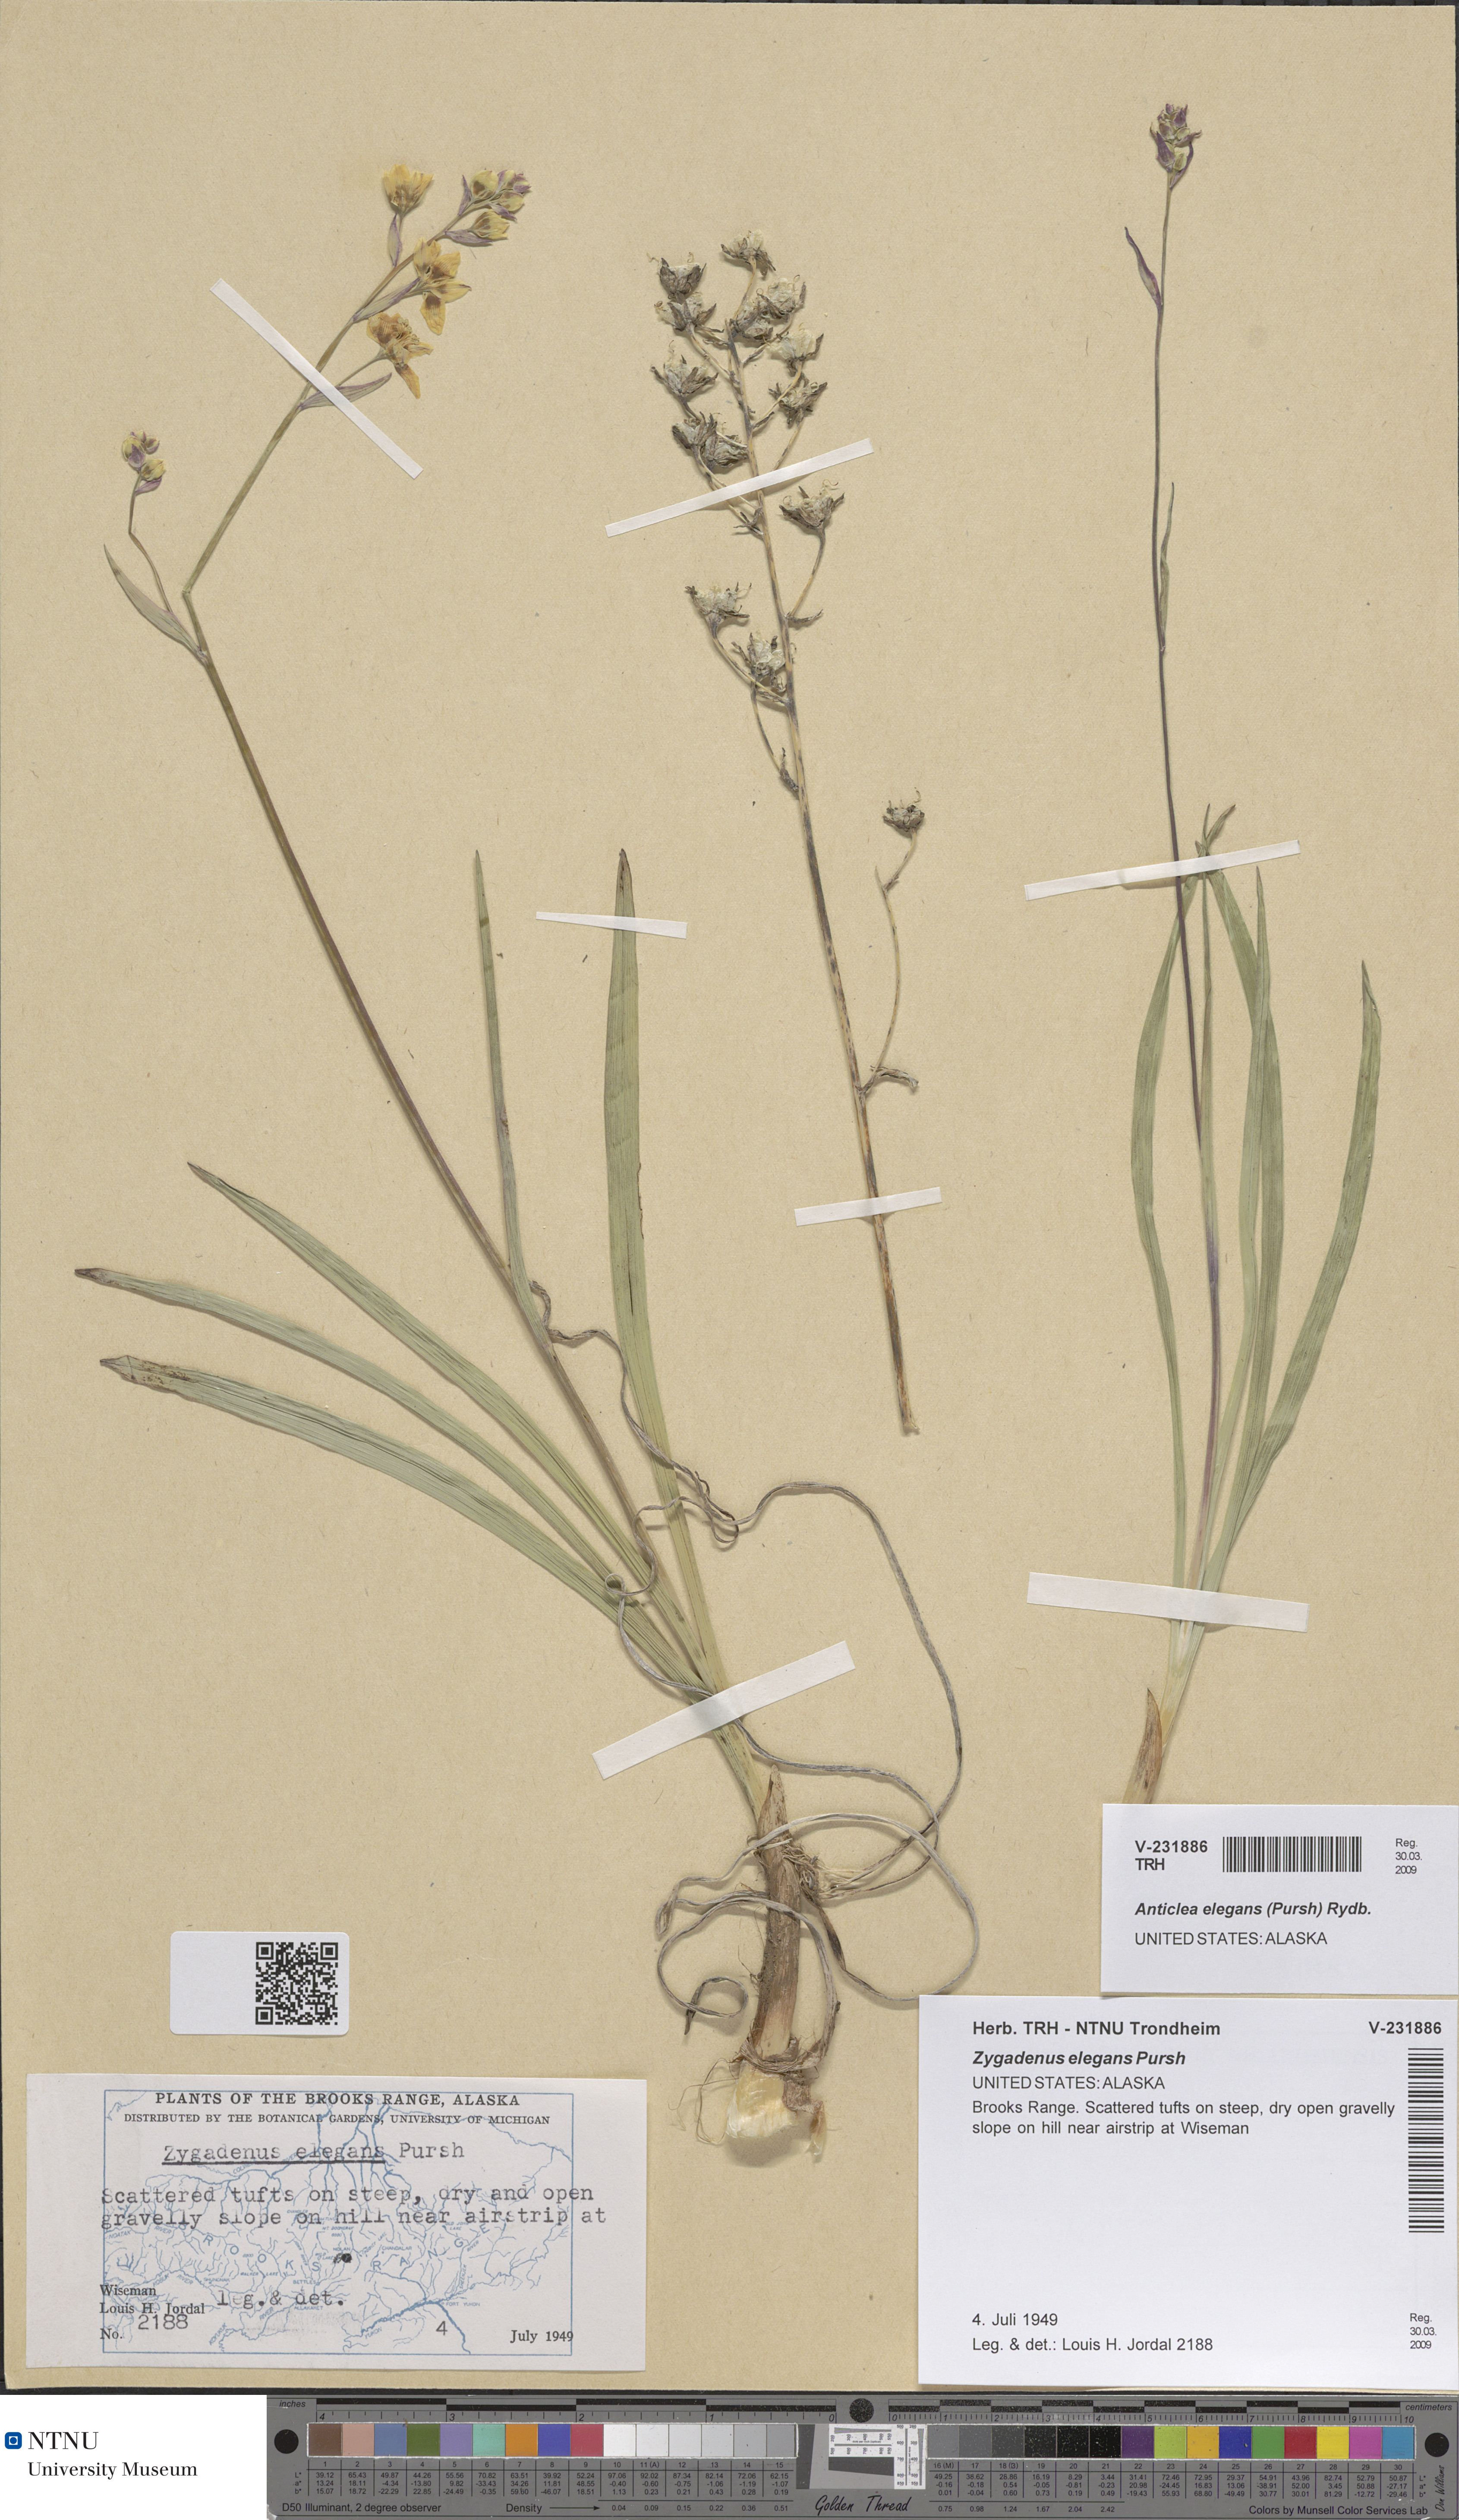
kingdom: Plantae
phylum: Tracheophyta
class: Liliopsida
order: Liliales
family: Melanthiaceae
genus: Anticlea
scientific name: Anticlea elegans
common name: Mountain death camas
